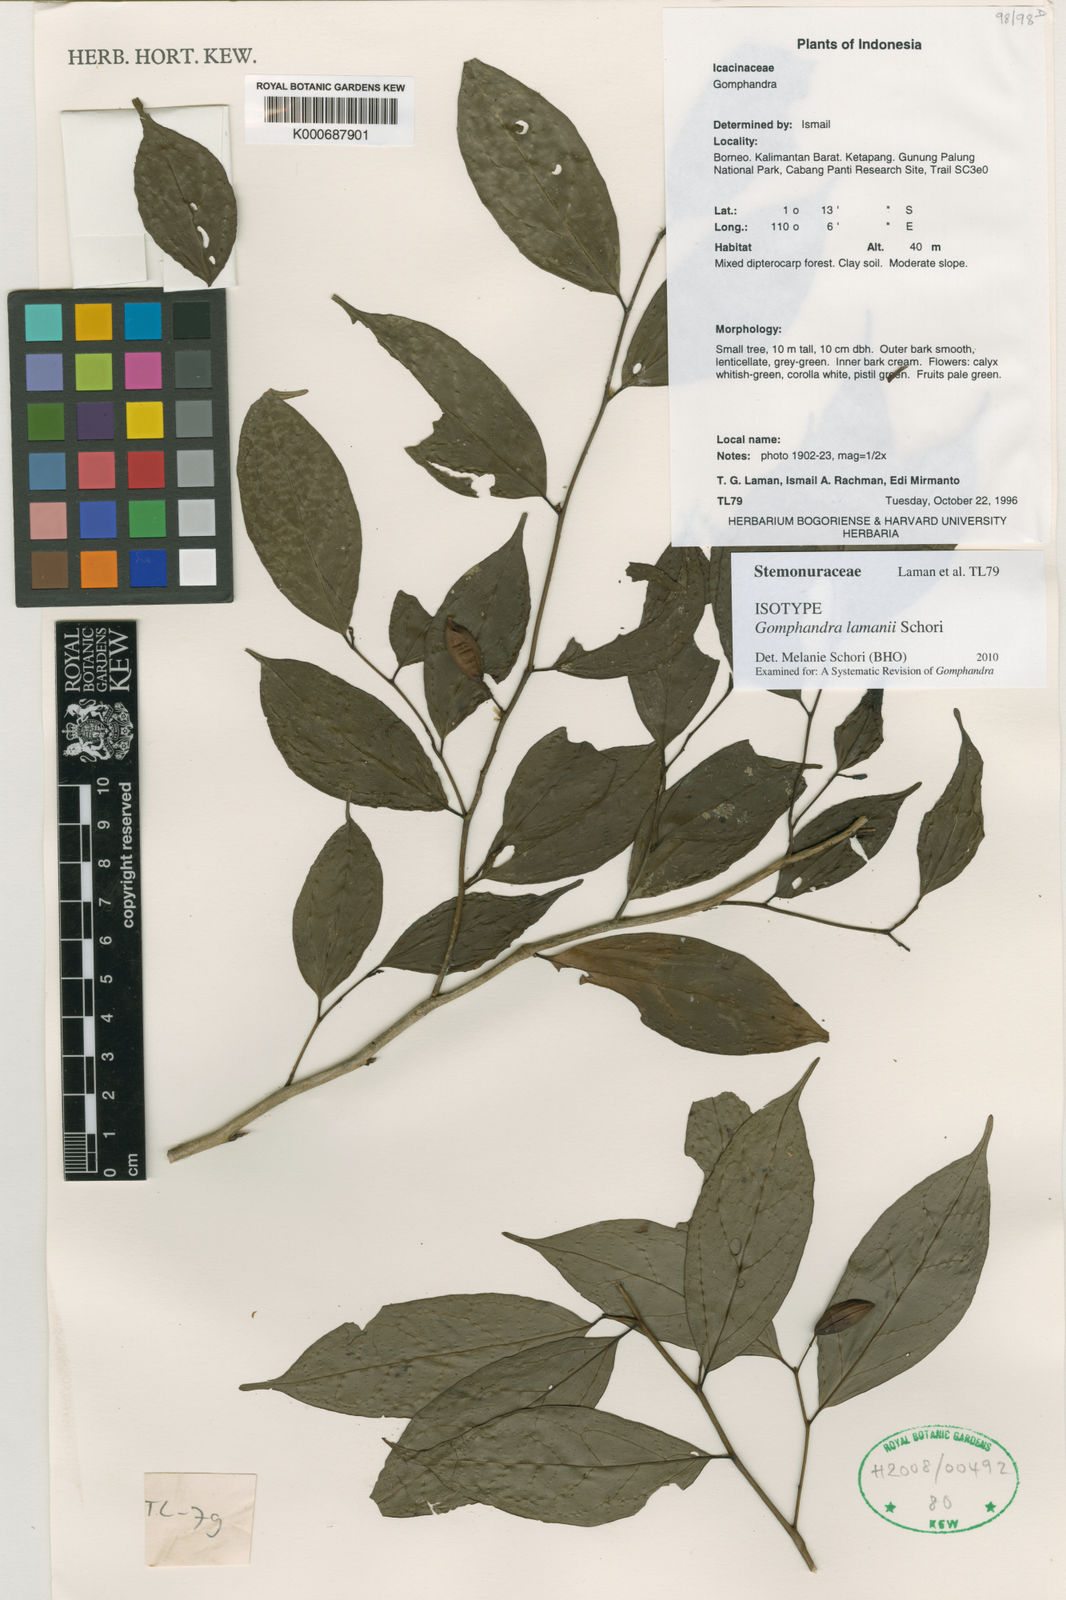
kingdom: Plantae
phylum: Tracheophyta
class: Magnoliopsida
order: Cardiopteridales
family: Stemonuraceae
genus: Gomphandra
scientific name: Gomphandra
